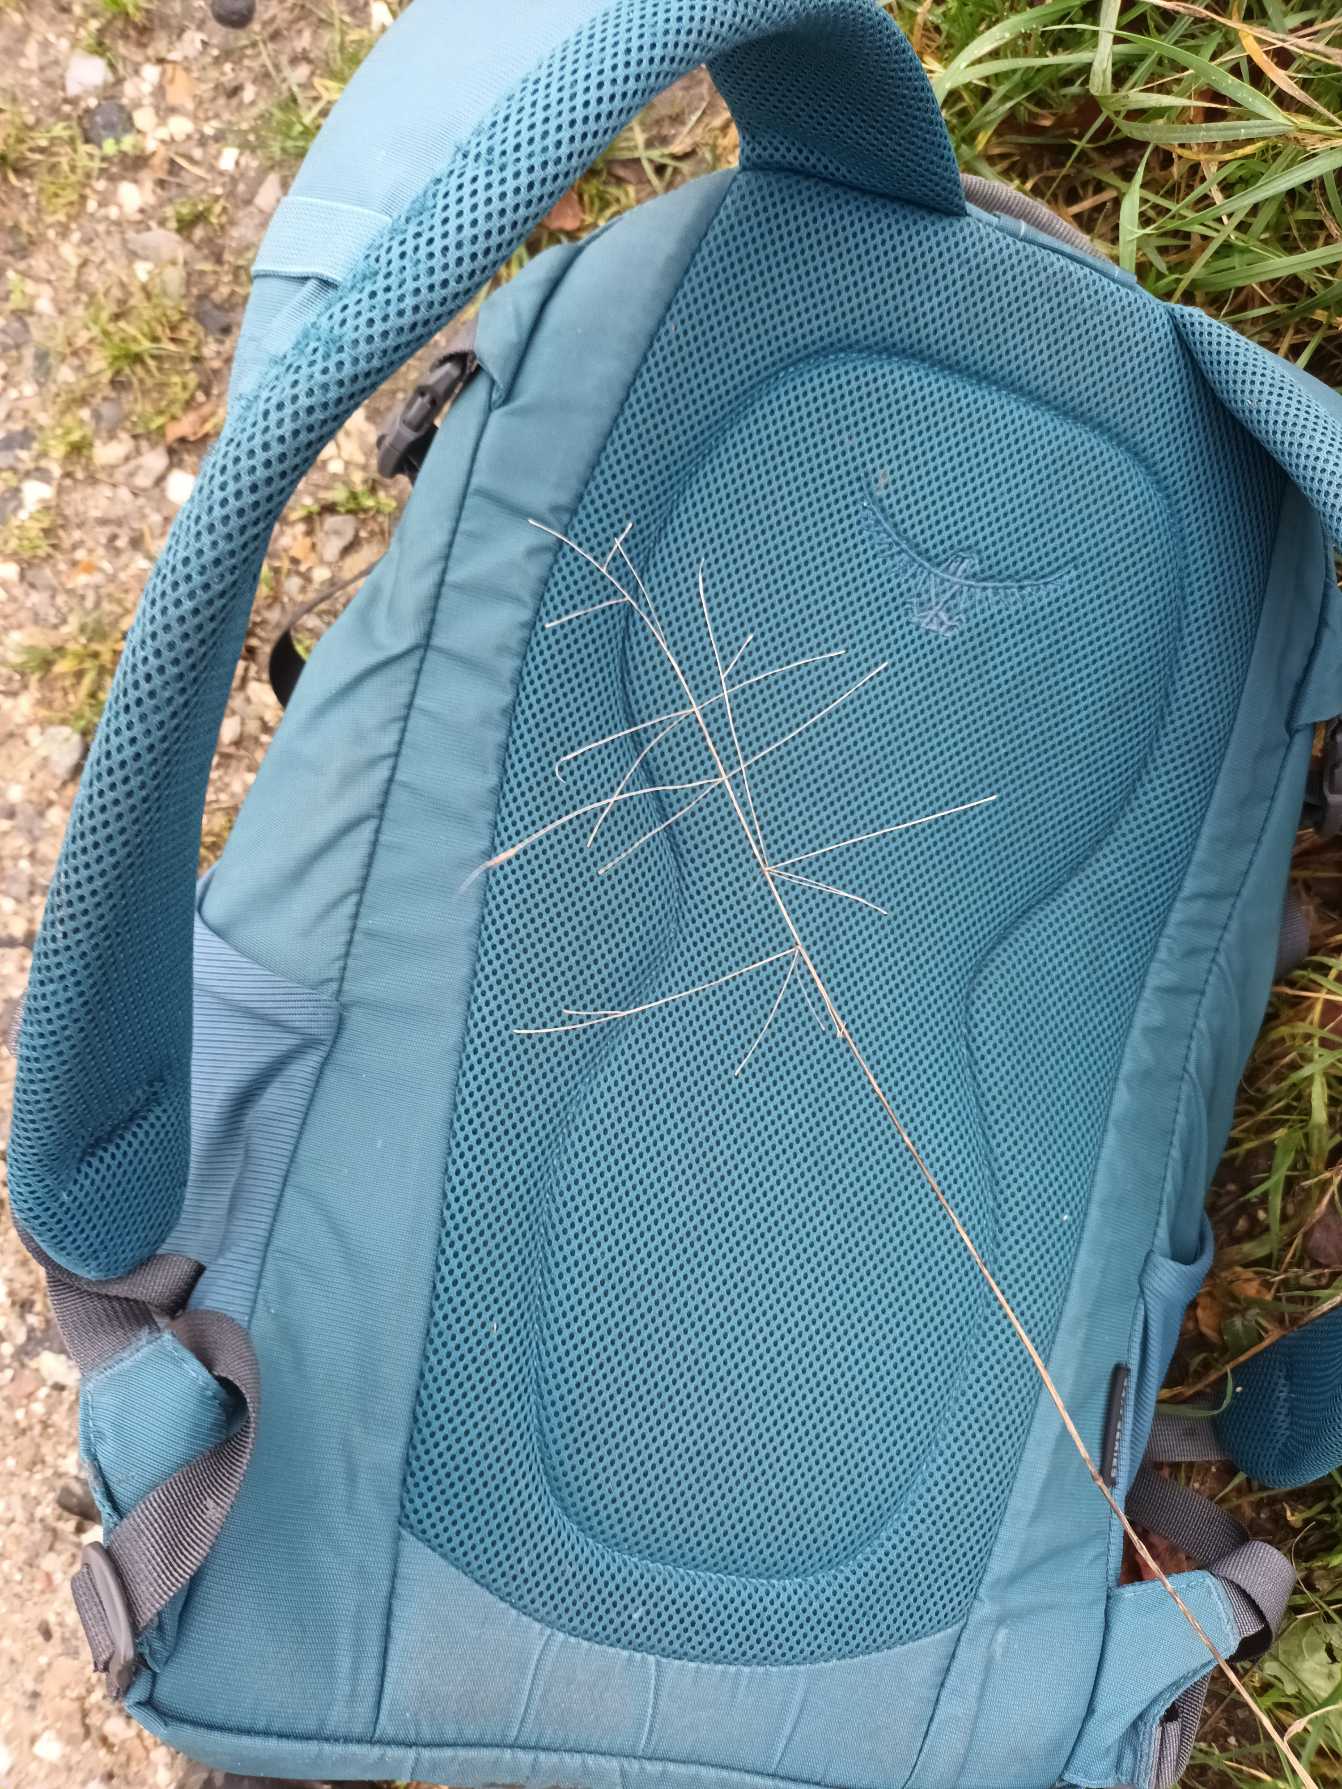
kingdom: Plantae
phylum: Tracheophyta
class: Liliopsida
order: Poales
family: Poaceae
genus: Bromus
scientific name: Bromus sterilis
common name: Gold hejre
